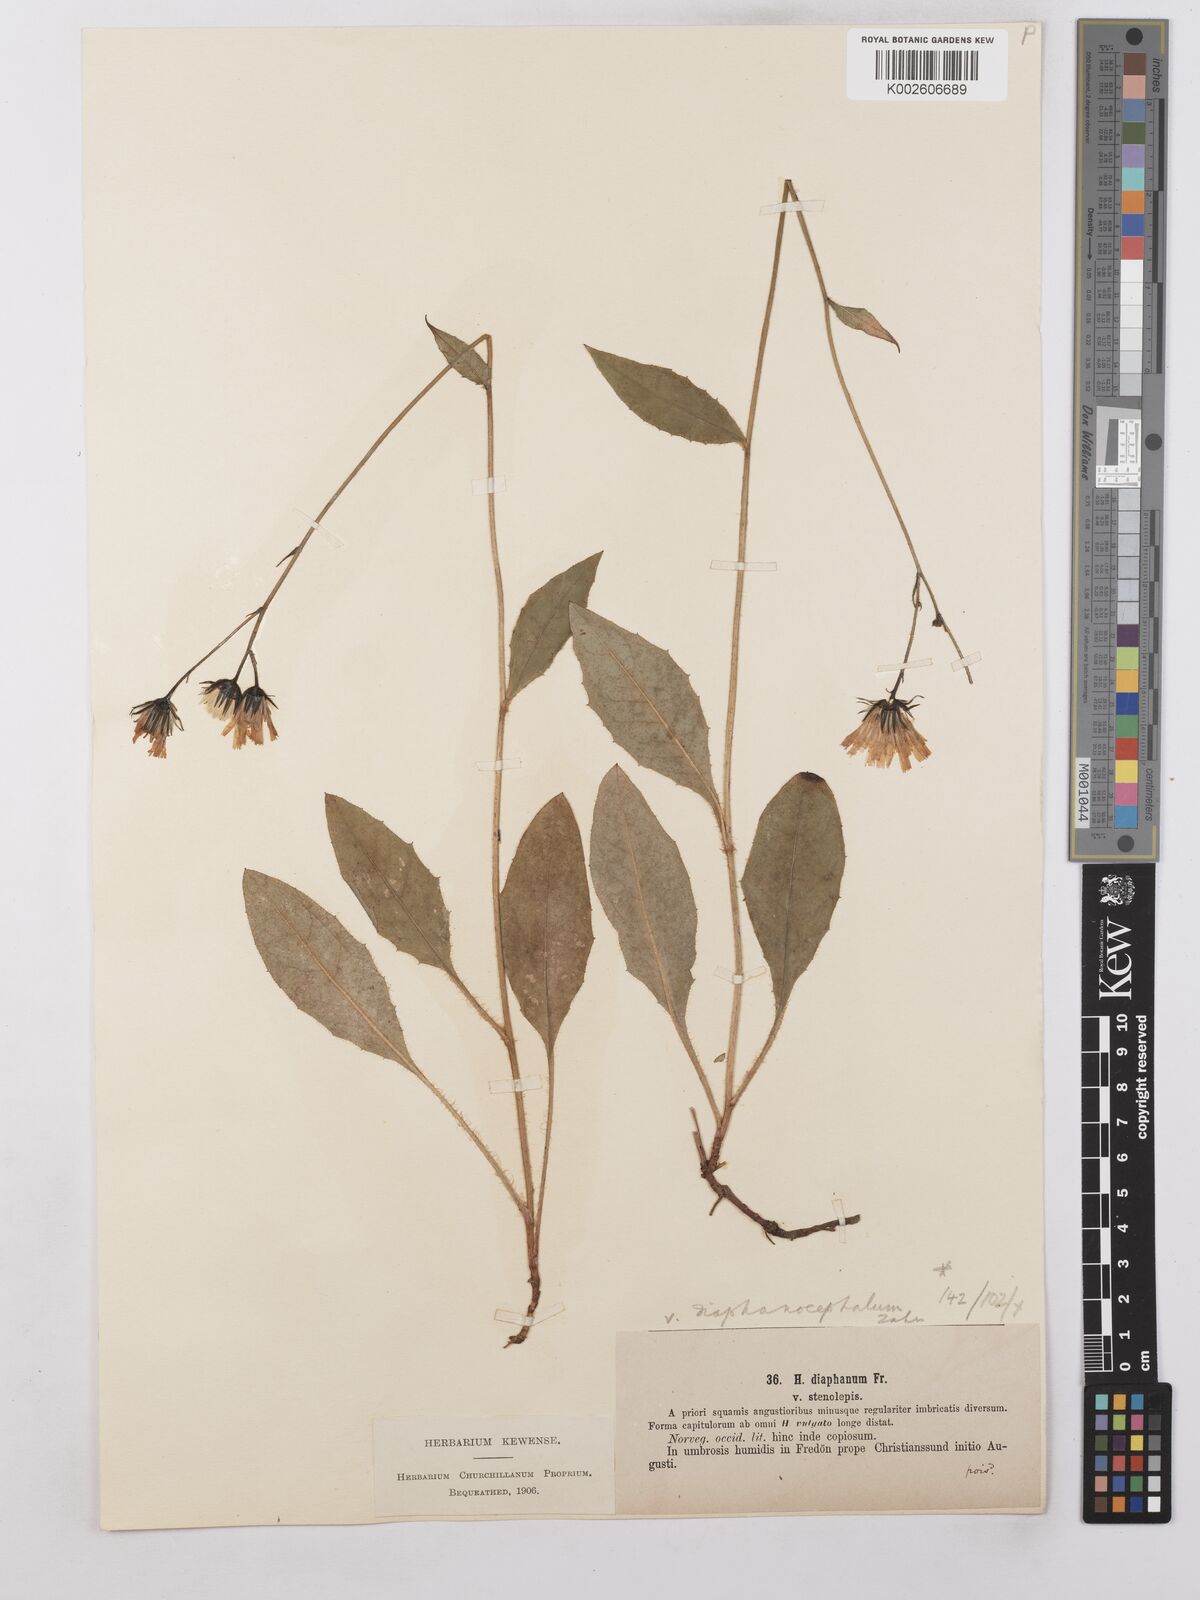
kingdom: Plantae
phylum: Tracheophyta
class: Magnoliopsida
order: Asterales
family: Asteraceae
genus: Hieracium
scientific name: Hieracium lachenalii
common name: Common hawkweed
